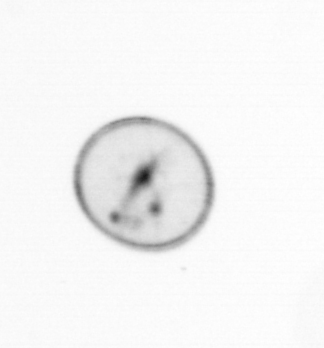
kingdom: Chromista
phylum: Myzozoa
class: Dinophyceae
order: Noctilucales
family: Noctilucaceae
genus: Noctiluca
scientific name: Noctiluca scintillans
